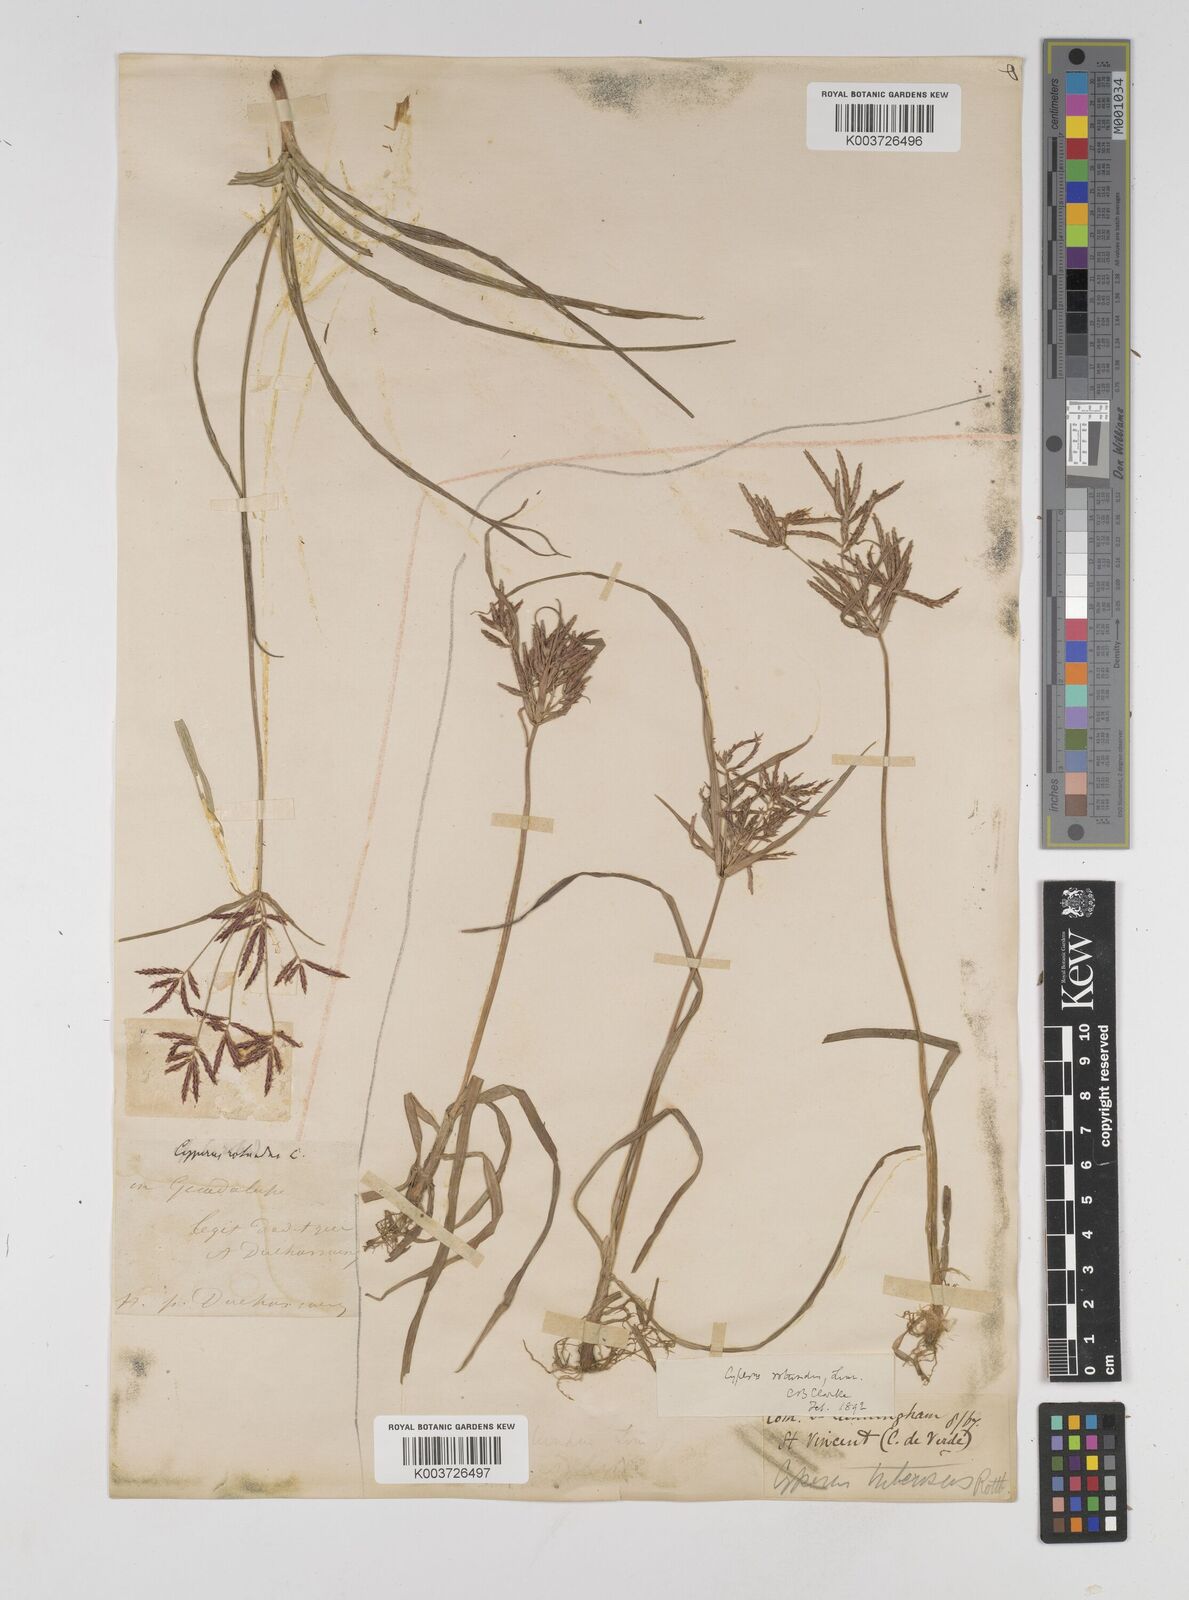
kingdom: Plantae
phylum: Tracheophyta
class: Liliopsida
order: Poales
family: Cyperaceae
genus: Cyperus
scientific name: Cyperus rotundus
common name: Nutgrass
